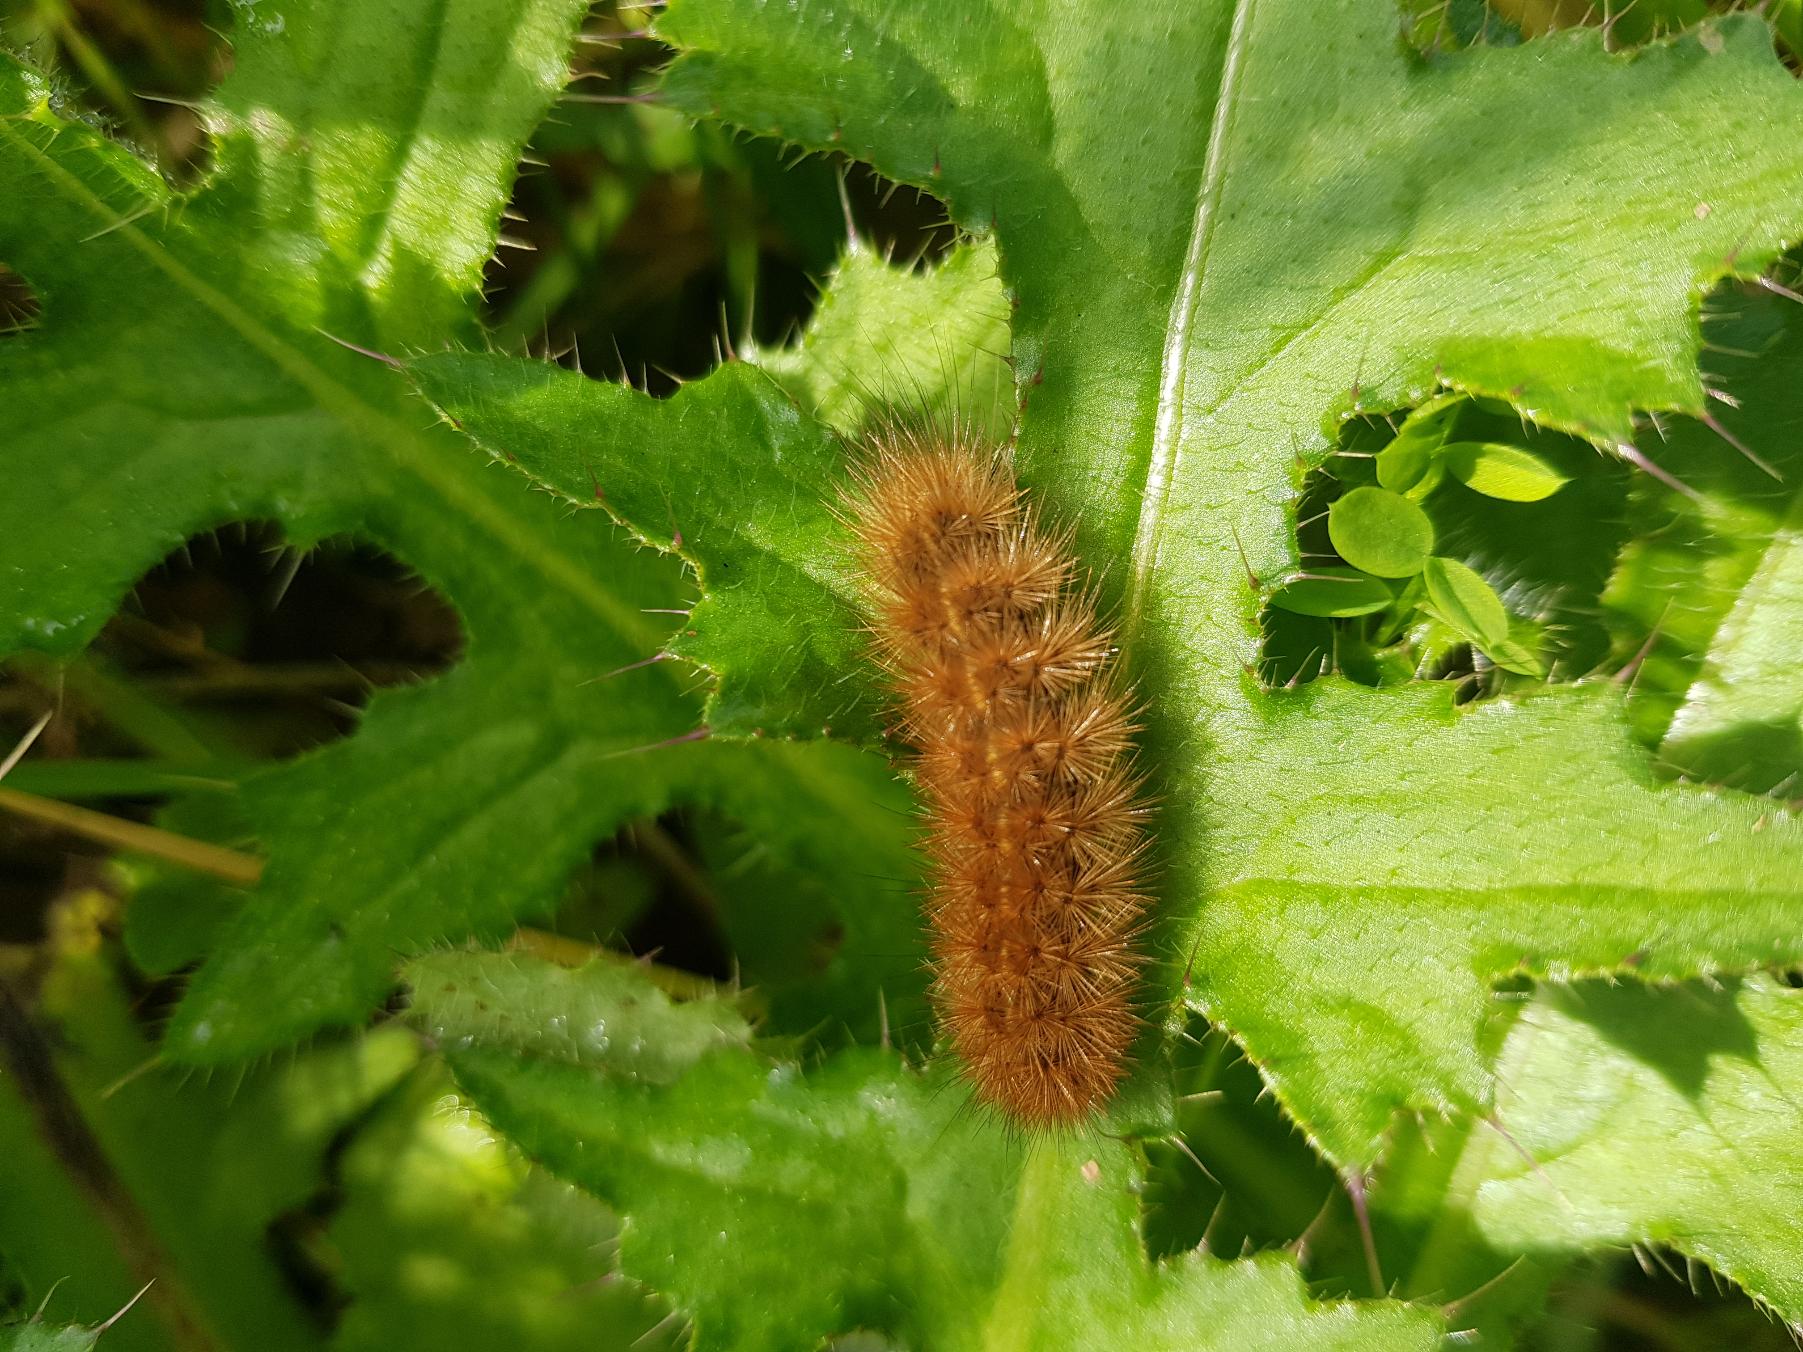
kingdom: Animalia
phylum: Arthropoda
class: Insecta
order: Lepidoptera
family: Erebidae
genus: Phragmatobia
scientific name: Phragmatobia fuliginosa
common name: Kanelbjørn
